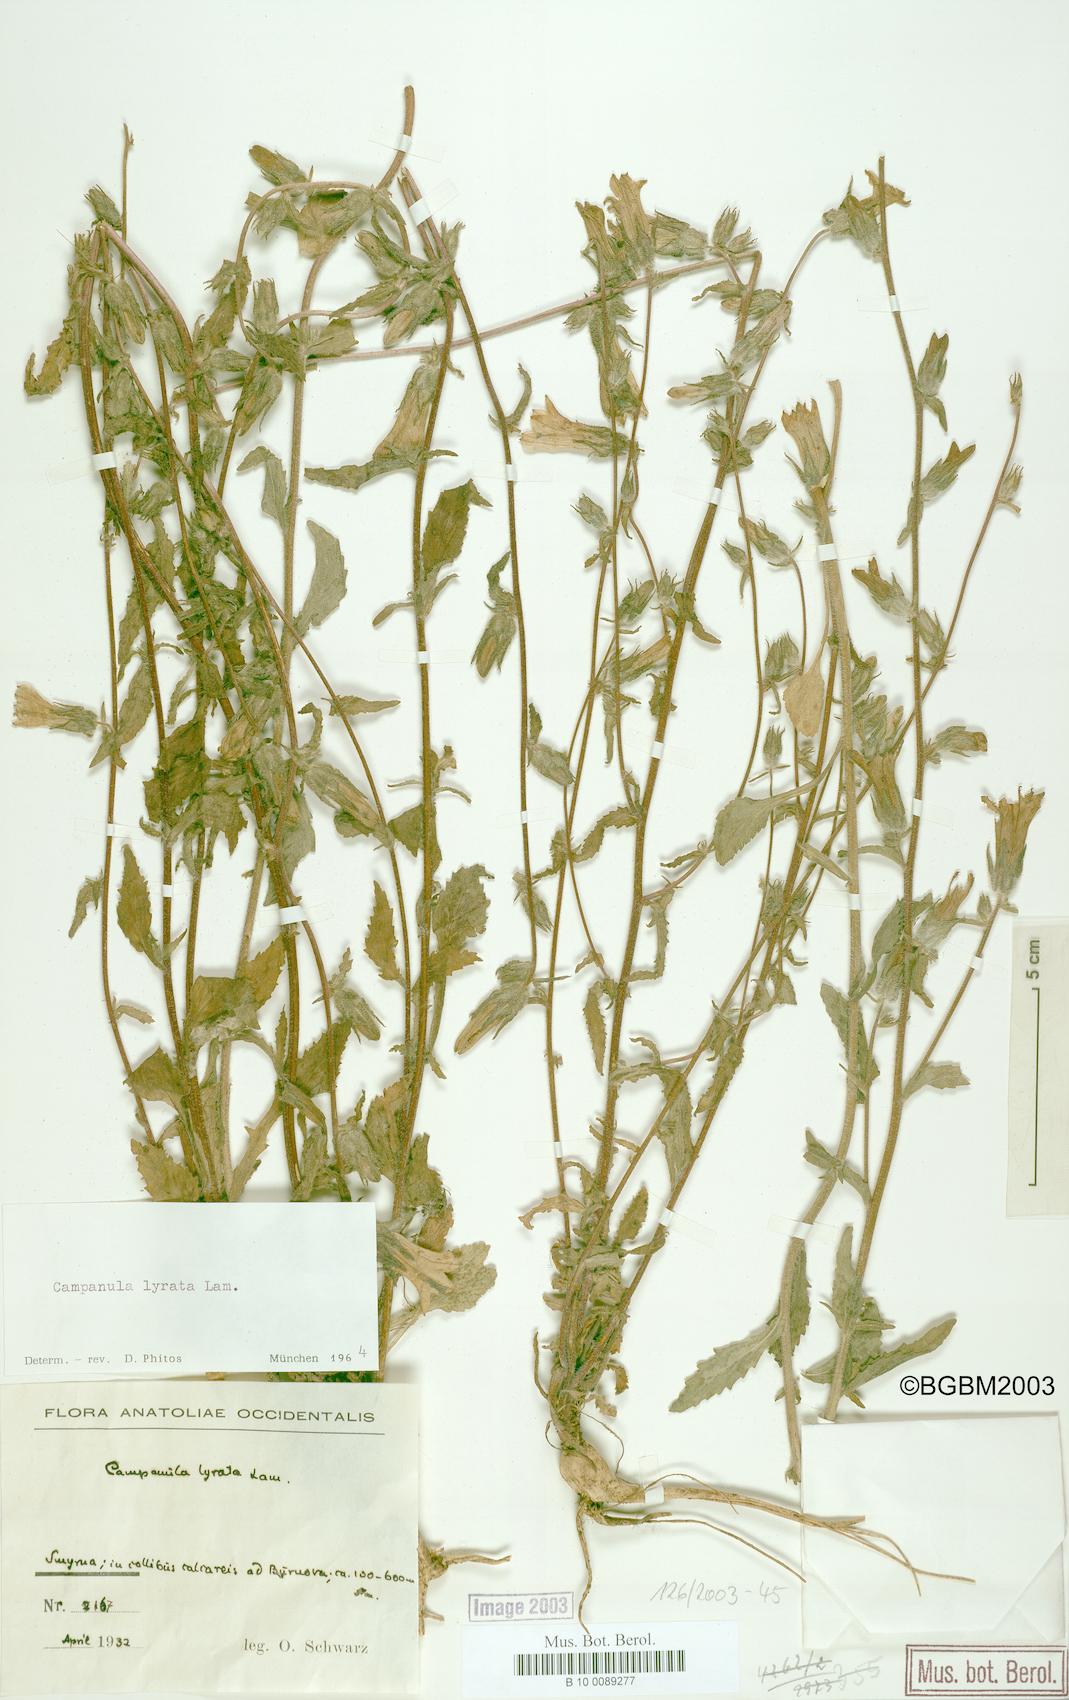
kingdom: Plantae
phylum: Tracheophyta
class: Magnoliopsida
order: Asterales
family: Campanulaceae
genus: Campanula
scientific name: Campanula lyrata
